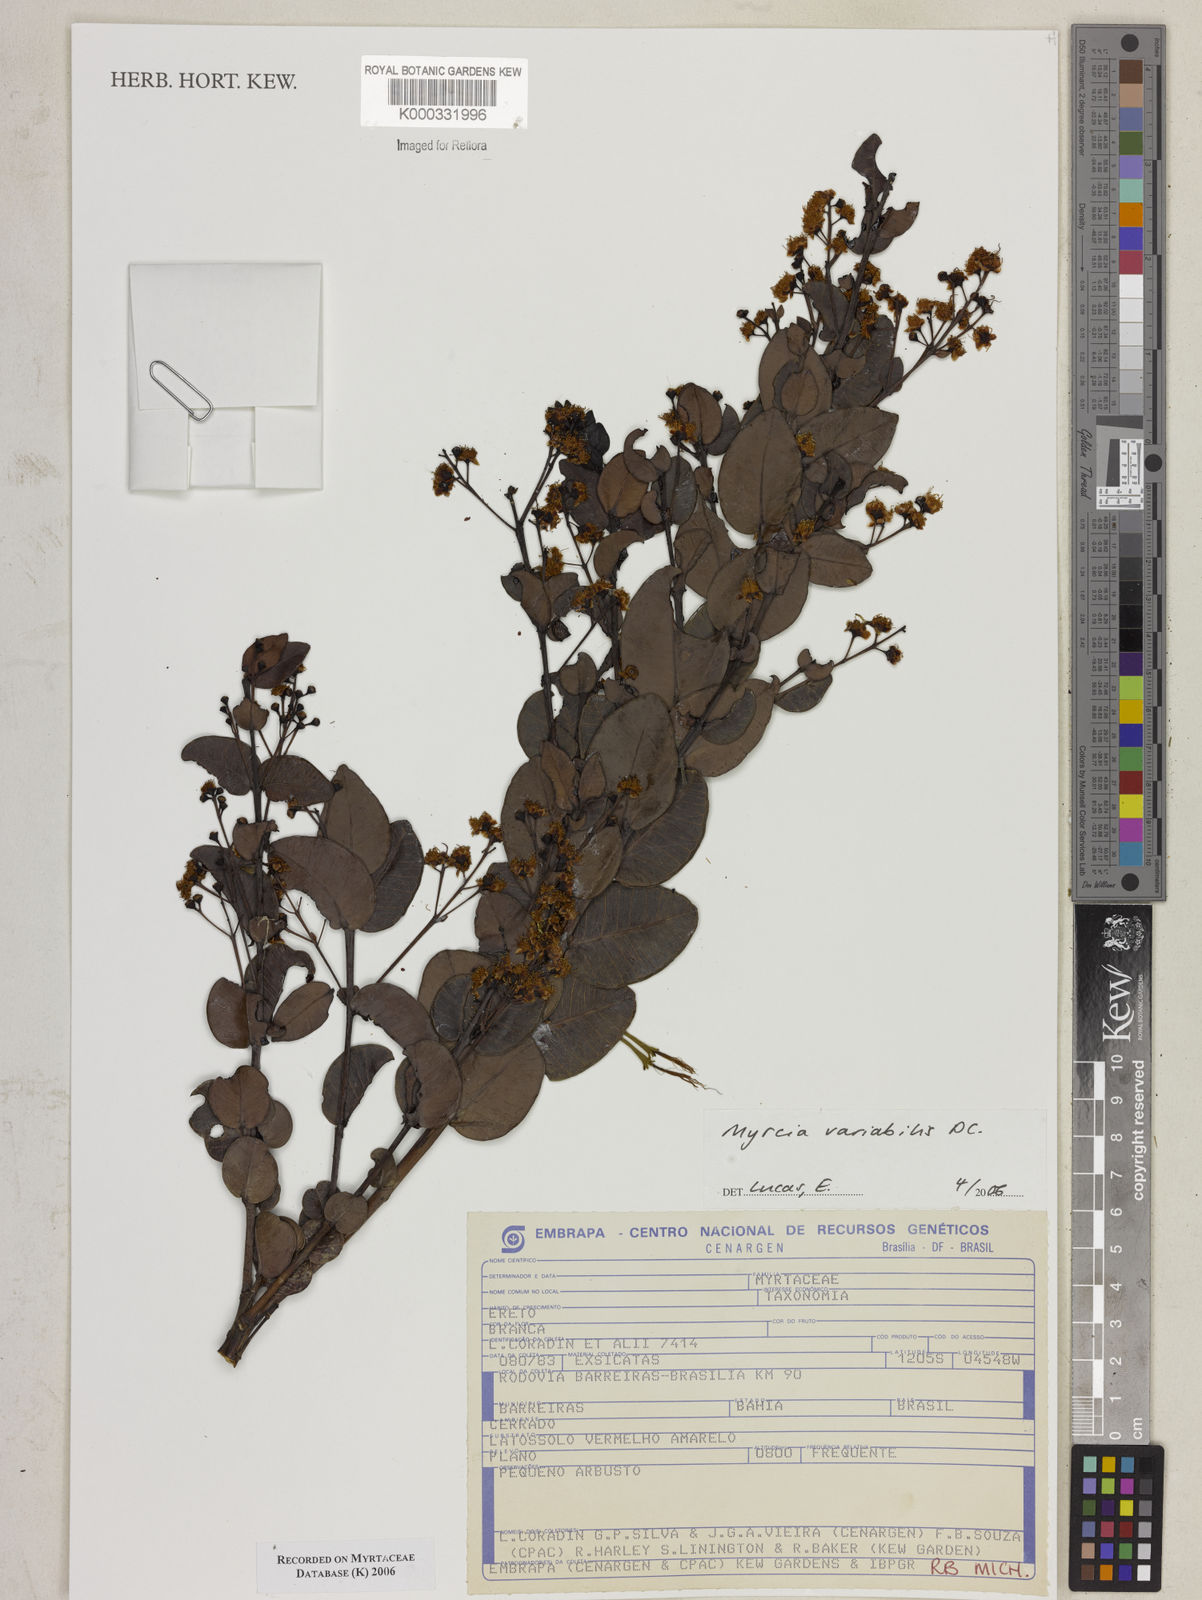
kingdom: Plantae
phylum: Tracheophyta
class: Magnoliopsida
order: Myrtales
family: Myrtaceae
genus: Myrcia
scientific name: Myrcia variabilis
